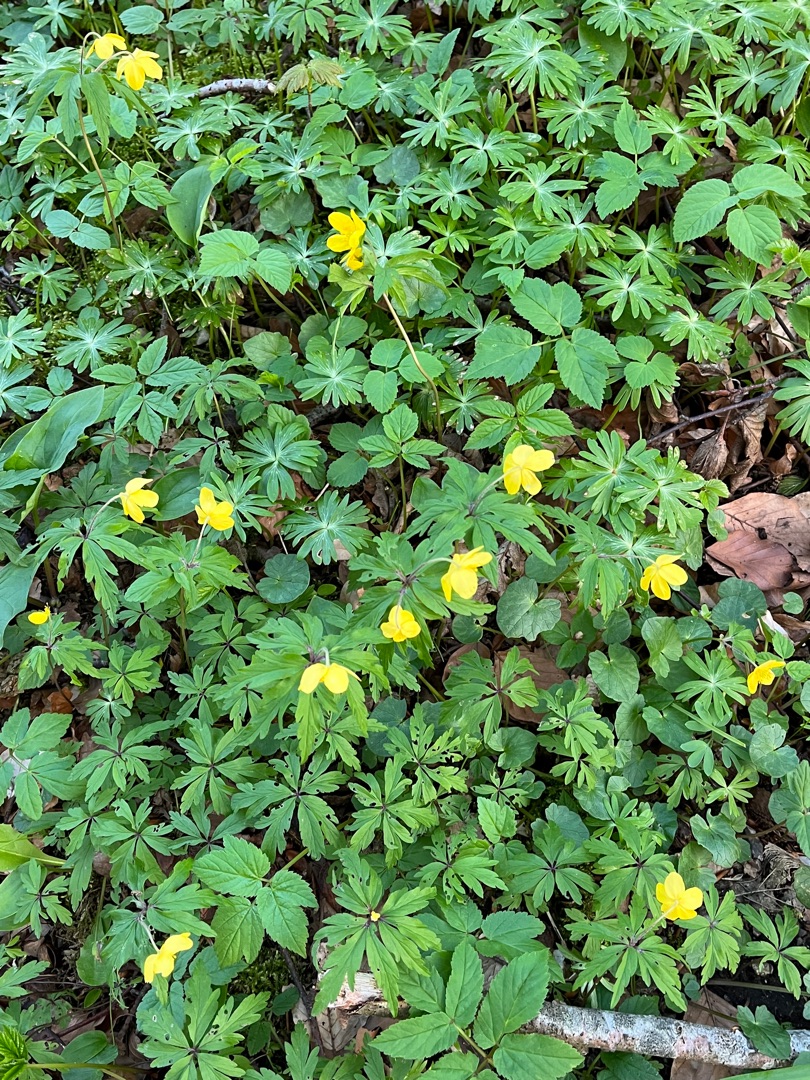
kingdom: Plantae
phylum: Tracheophyta
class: Magnoliopsida
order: Ranunculales
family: Ranunculaceae
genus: Anemone
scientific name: Anemone ranunculoides
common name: Gul anemone
